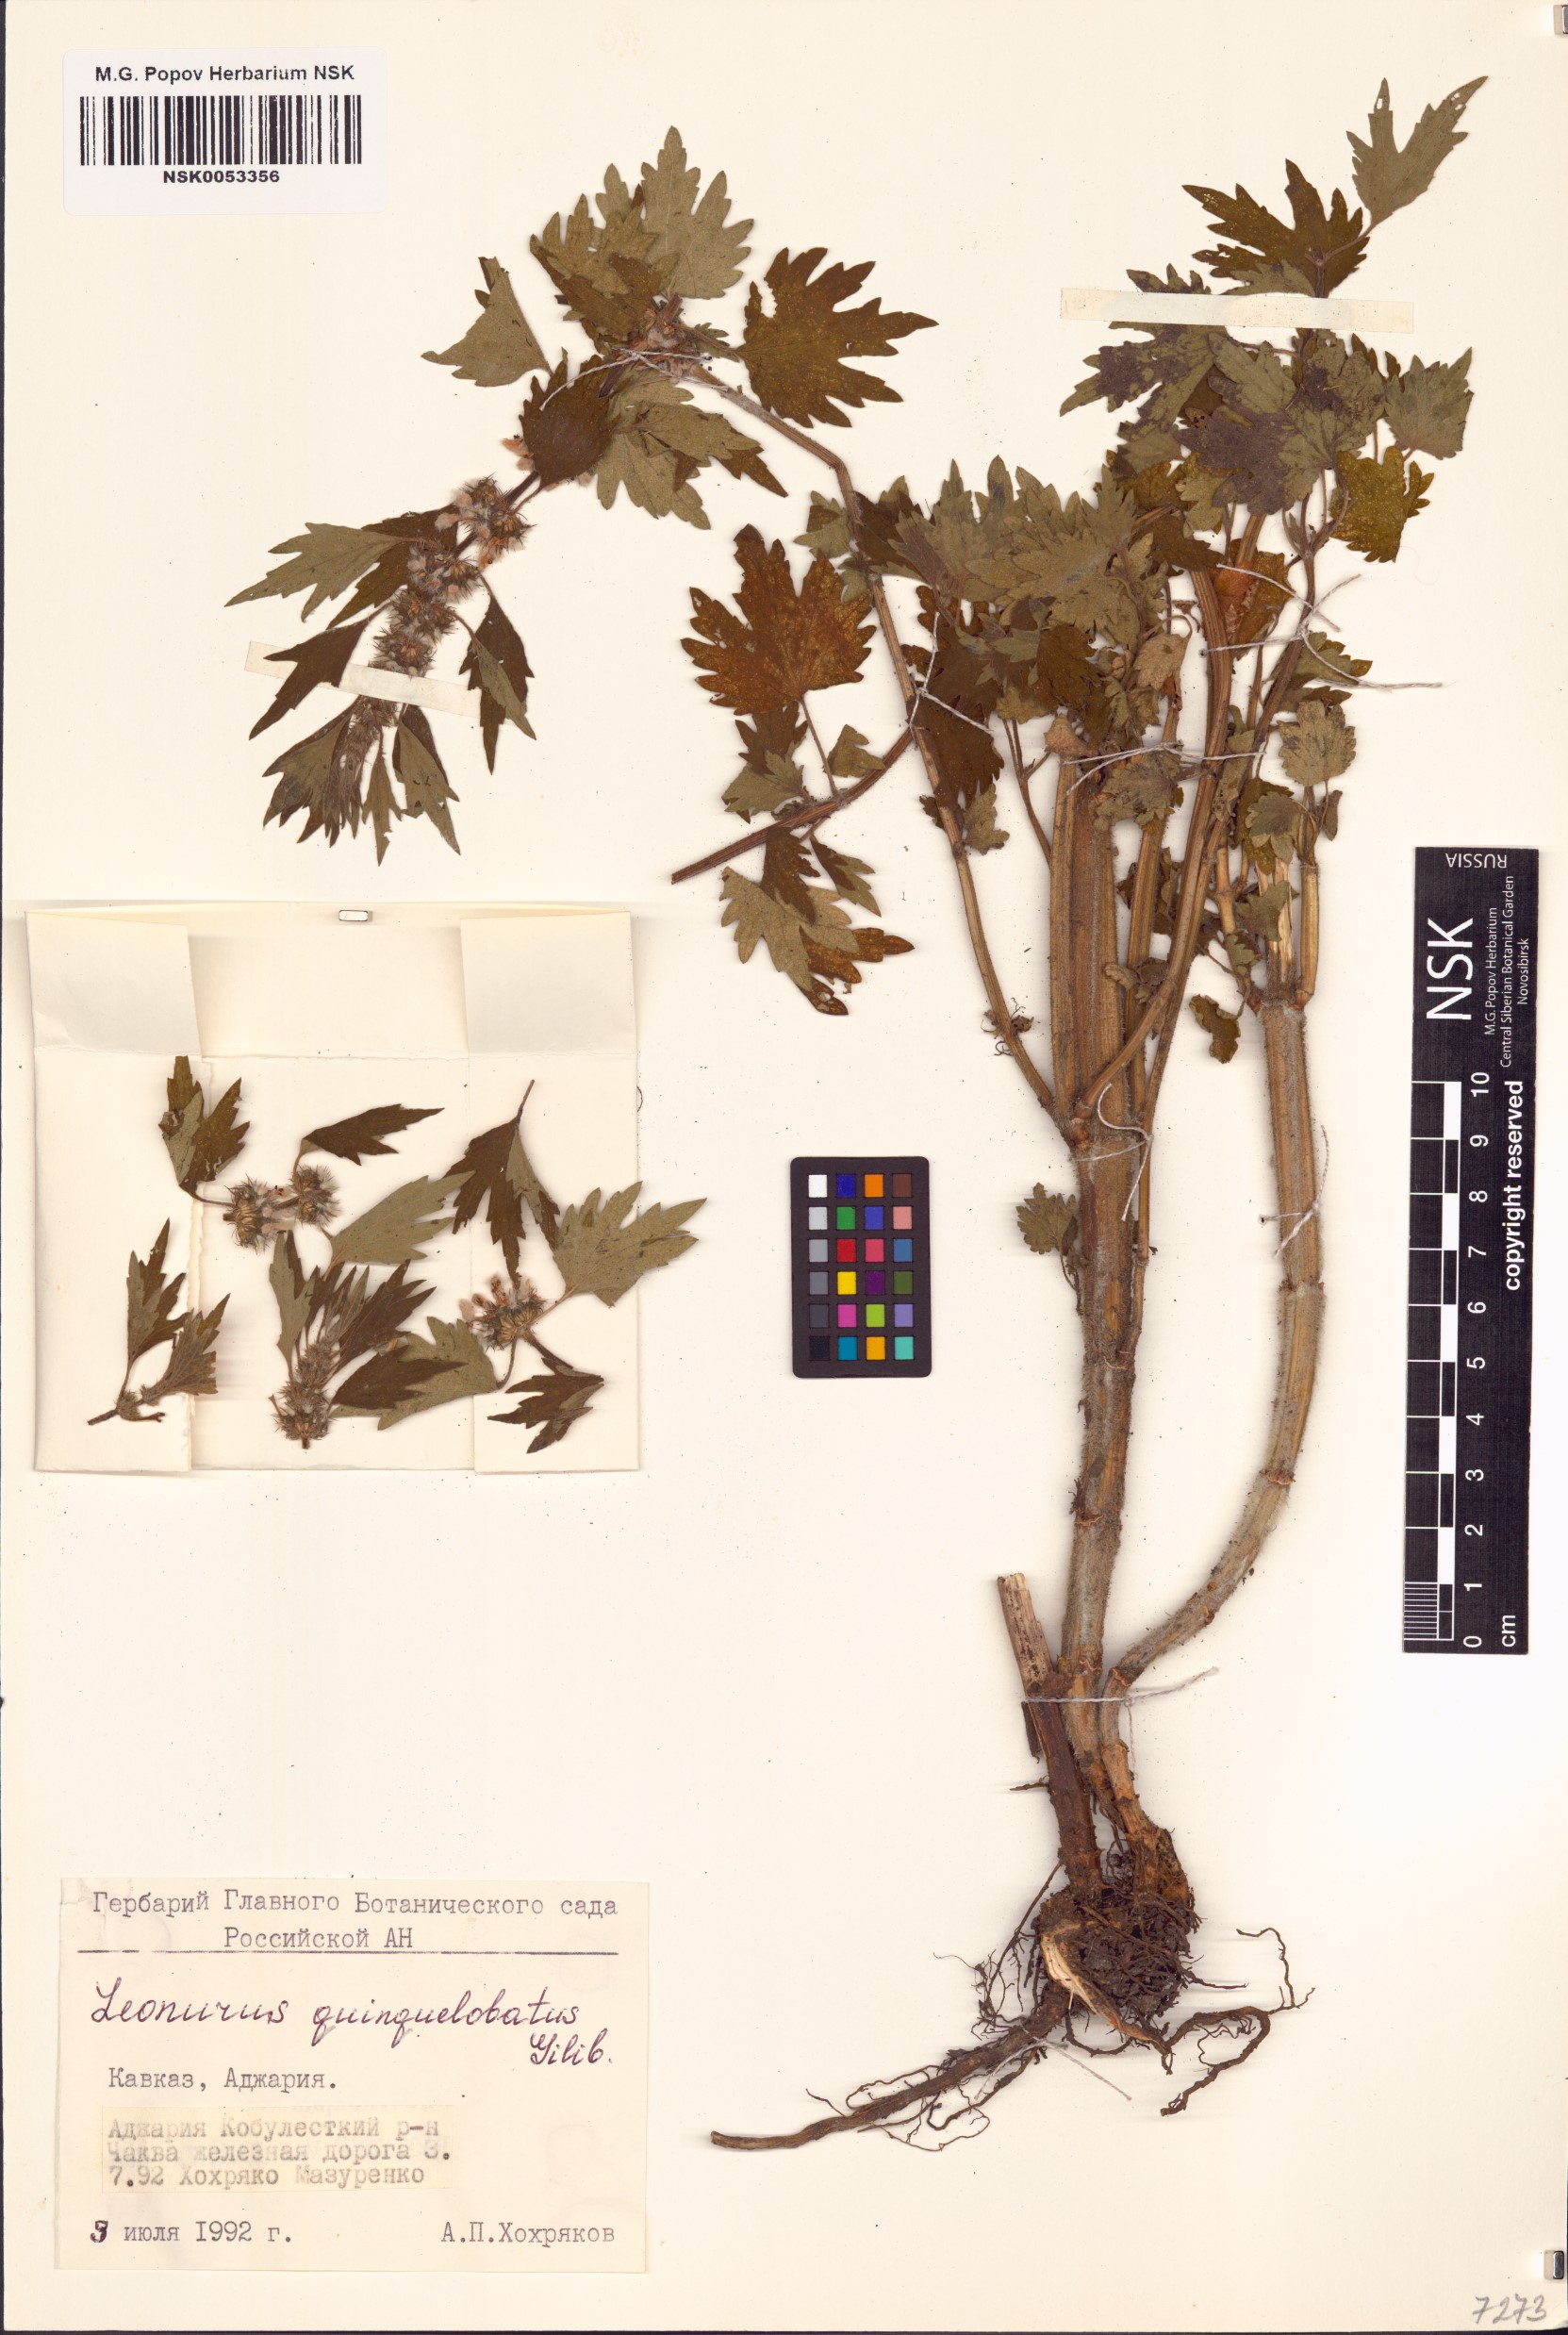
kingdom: Plantae
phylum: Tracheophyta
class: Magnoliopsida
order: Lamiales
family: Lamiaceae
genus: Leonurus
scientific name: Leonurus quinquelobatus
